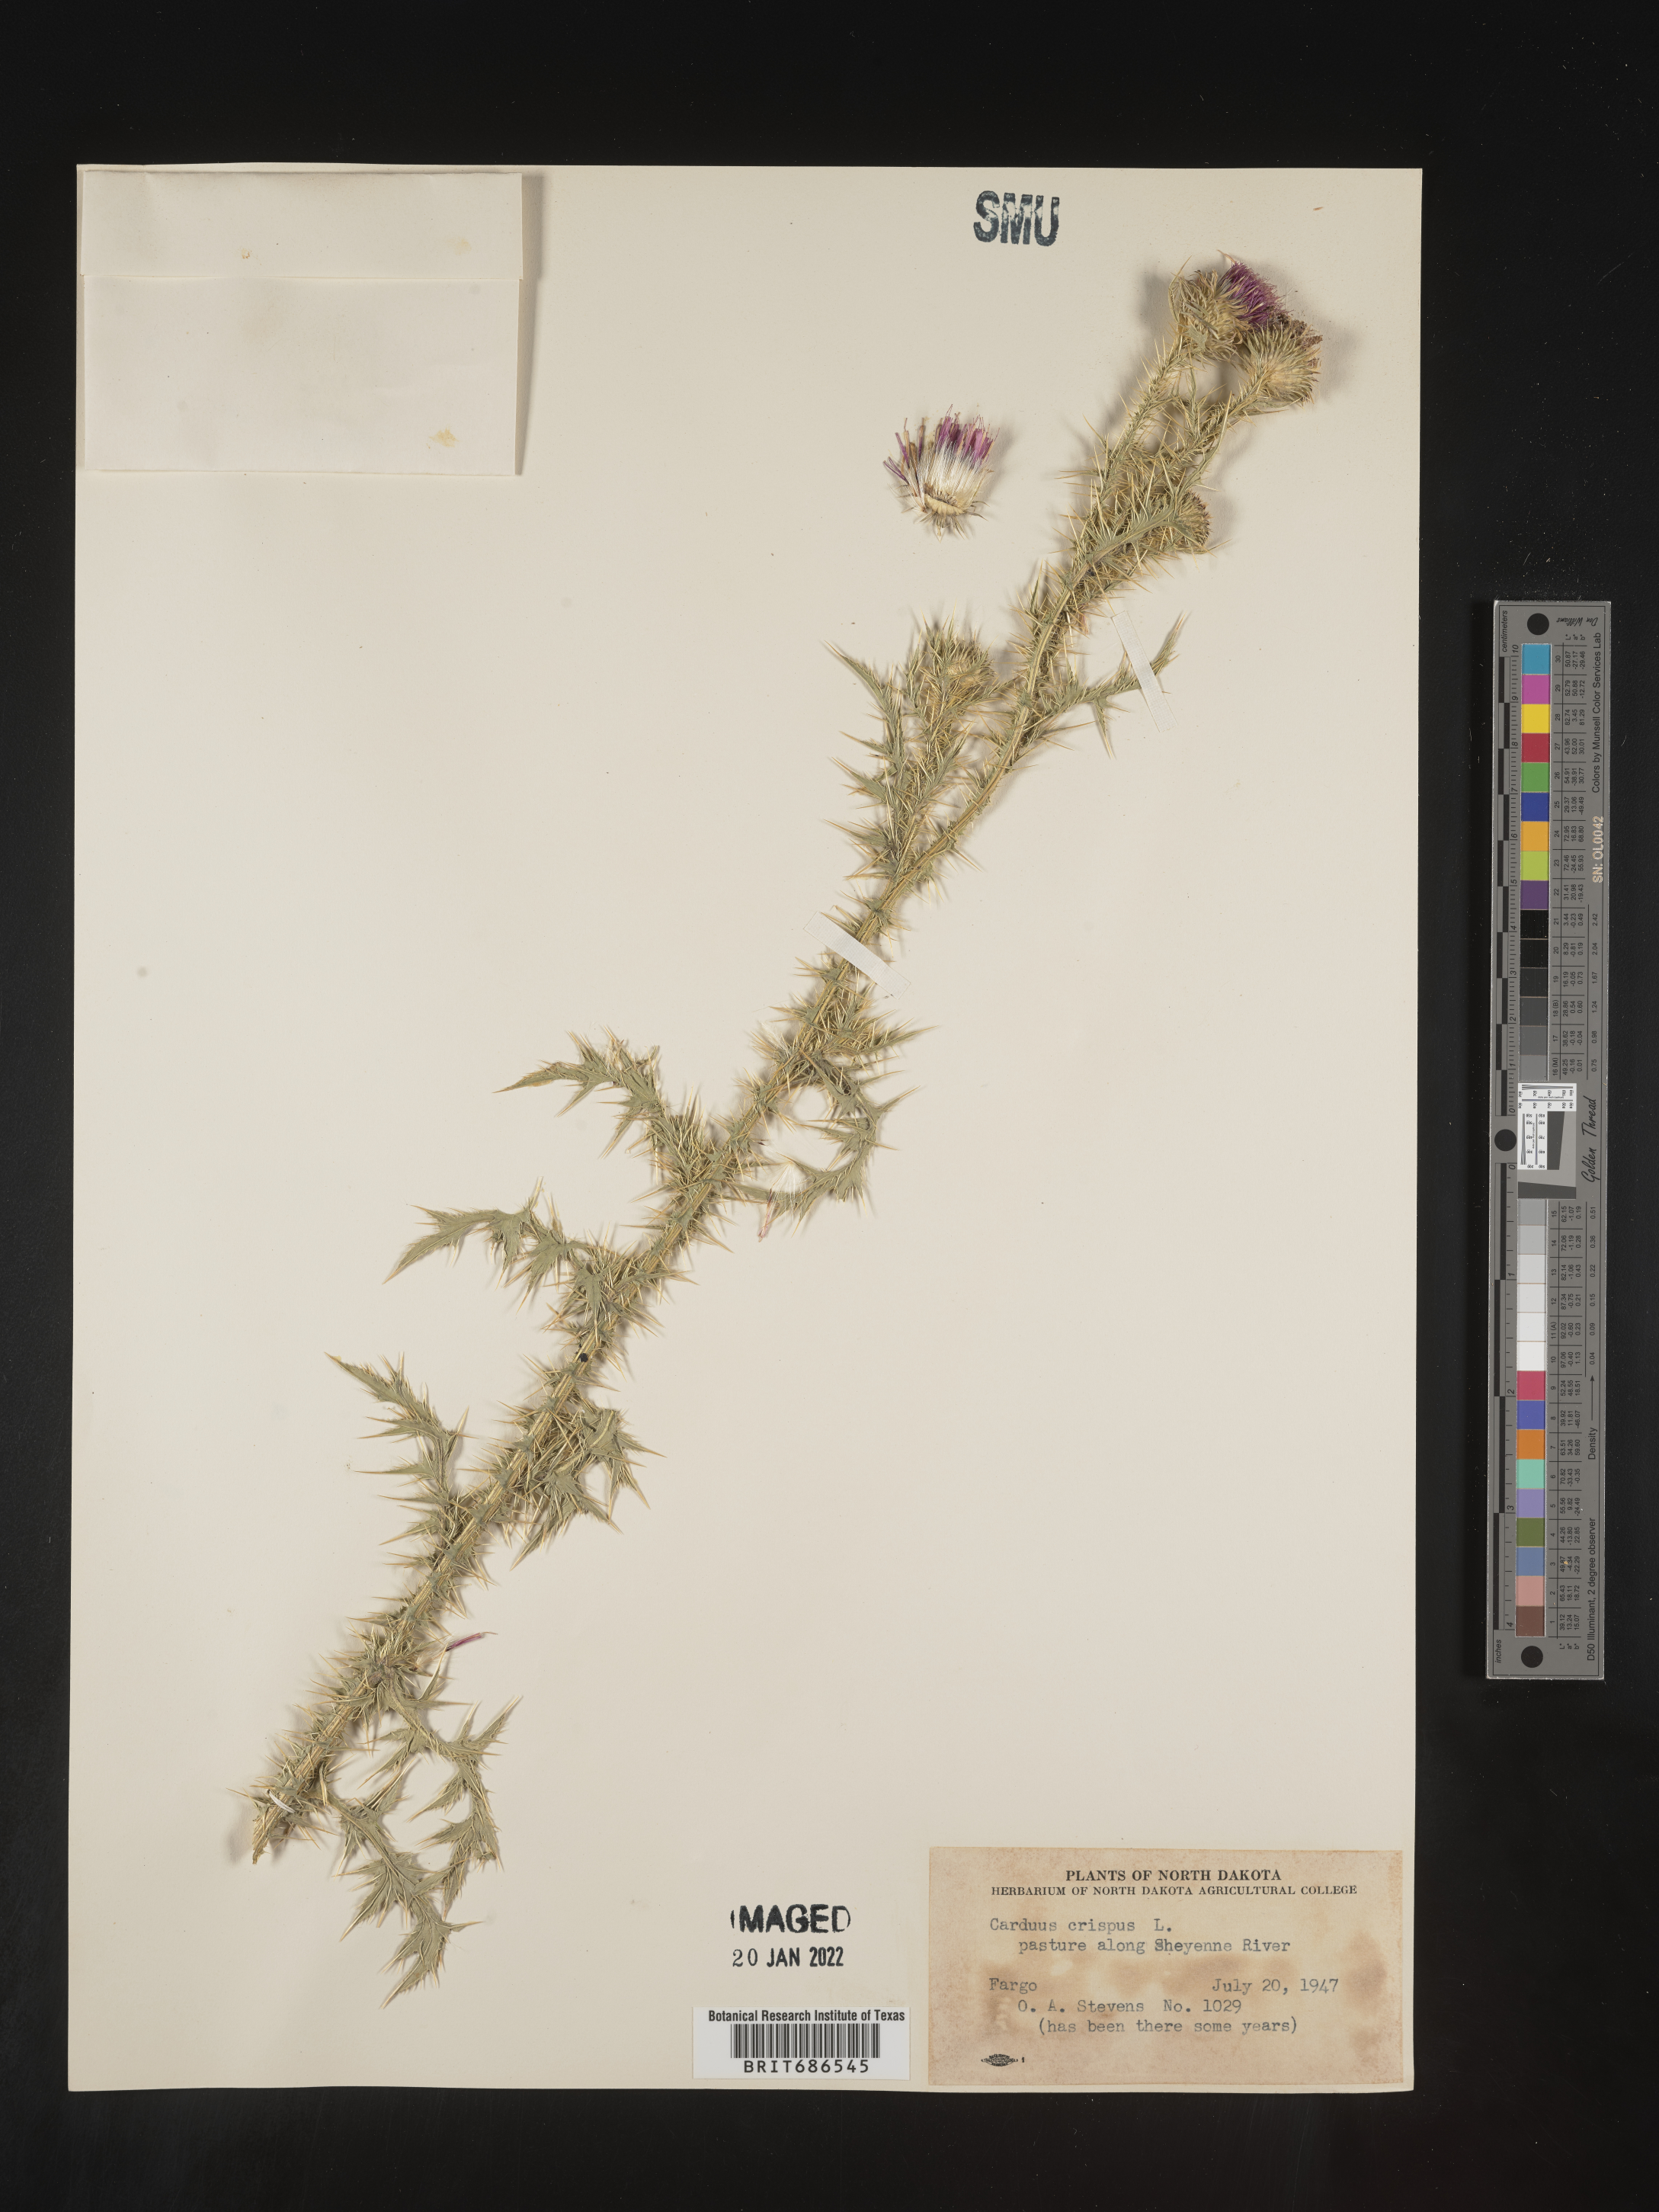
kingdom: Plantae
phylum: Tracheophyta
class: Magnoliopsida
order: Asterales
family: Asteraceae
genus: Carduus
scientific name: Carduus crispus
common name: Welted thistle
